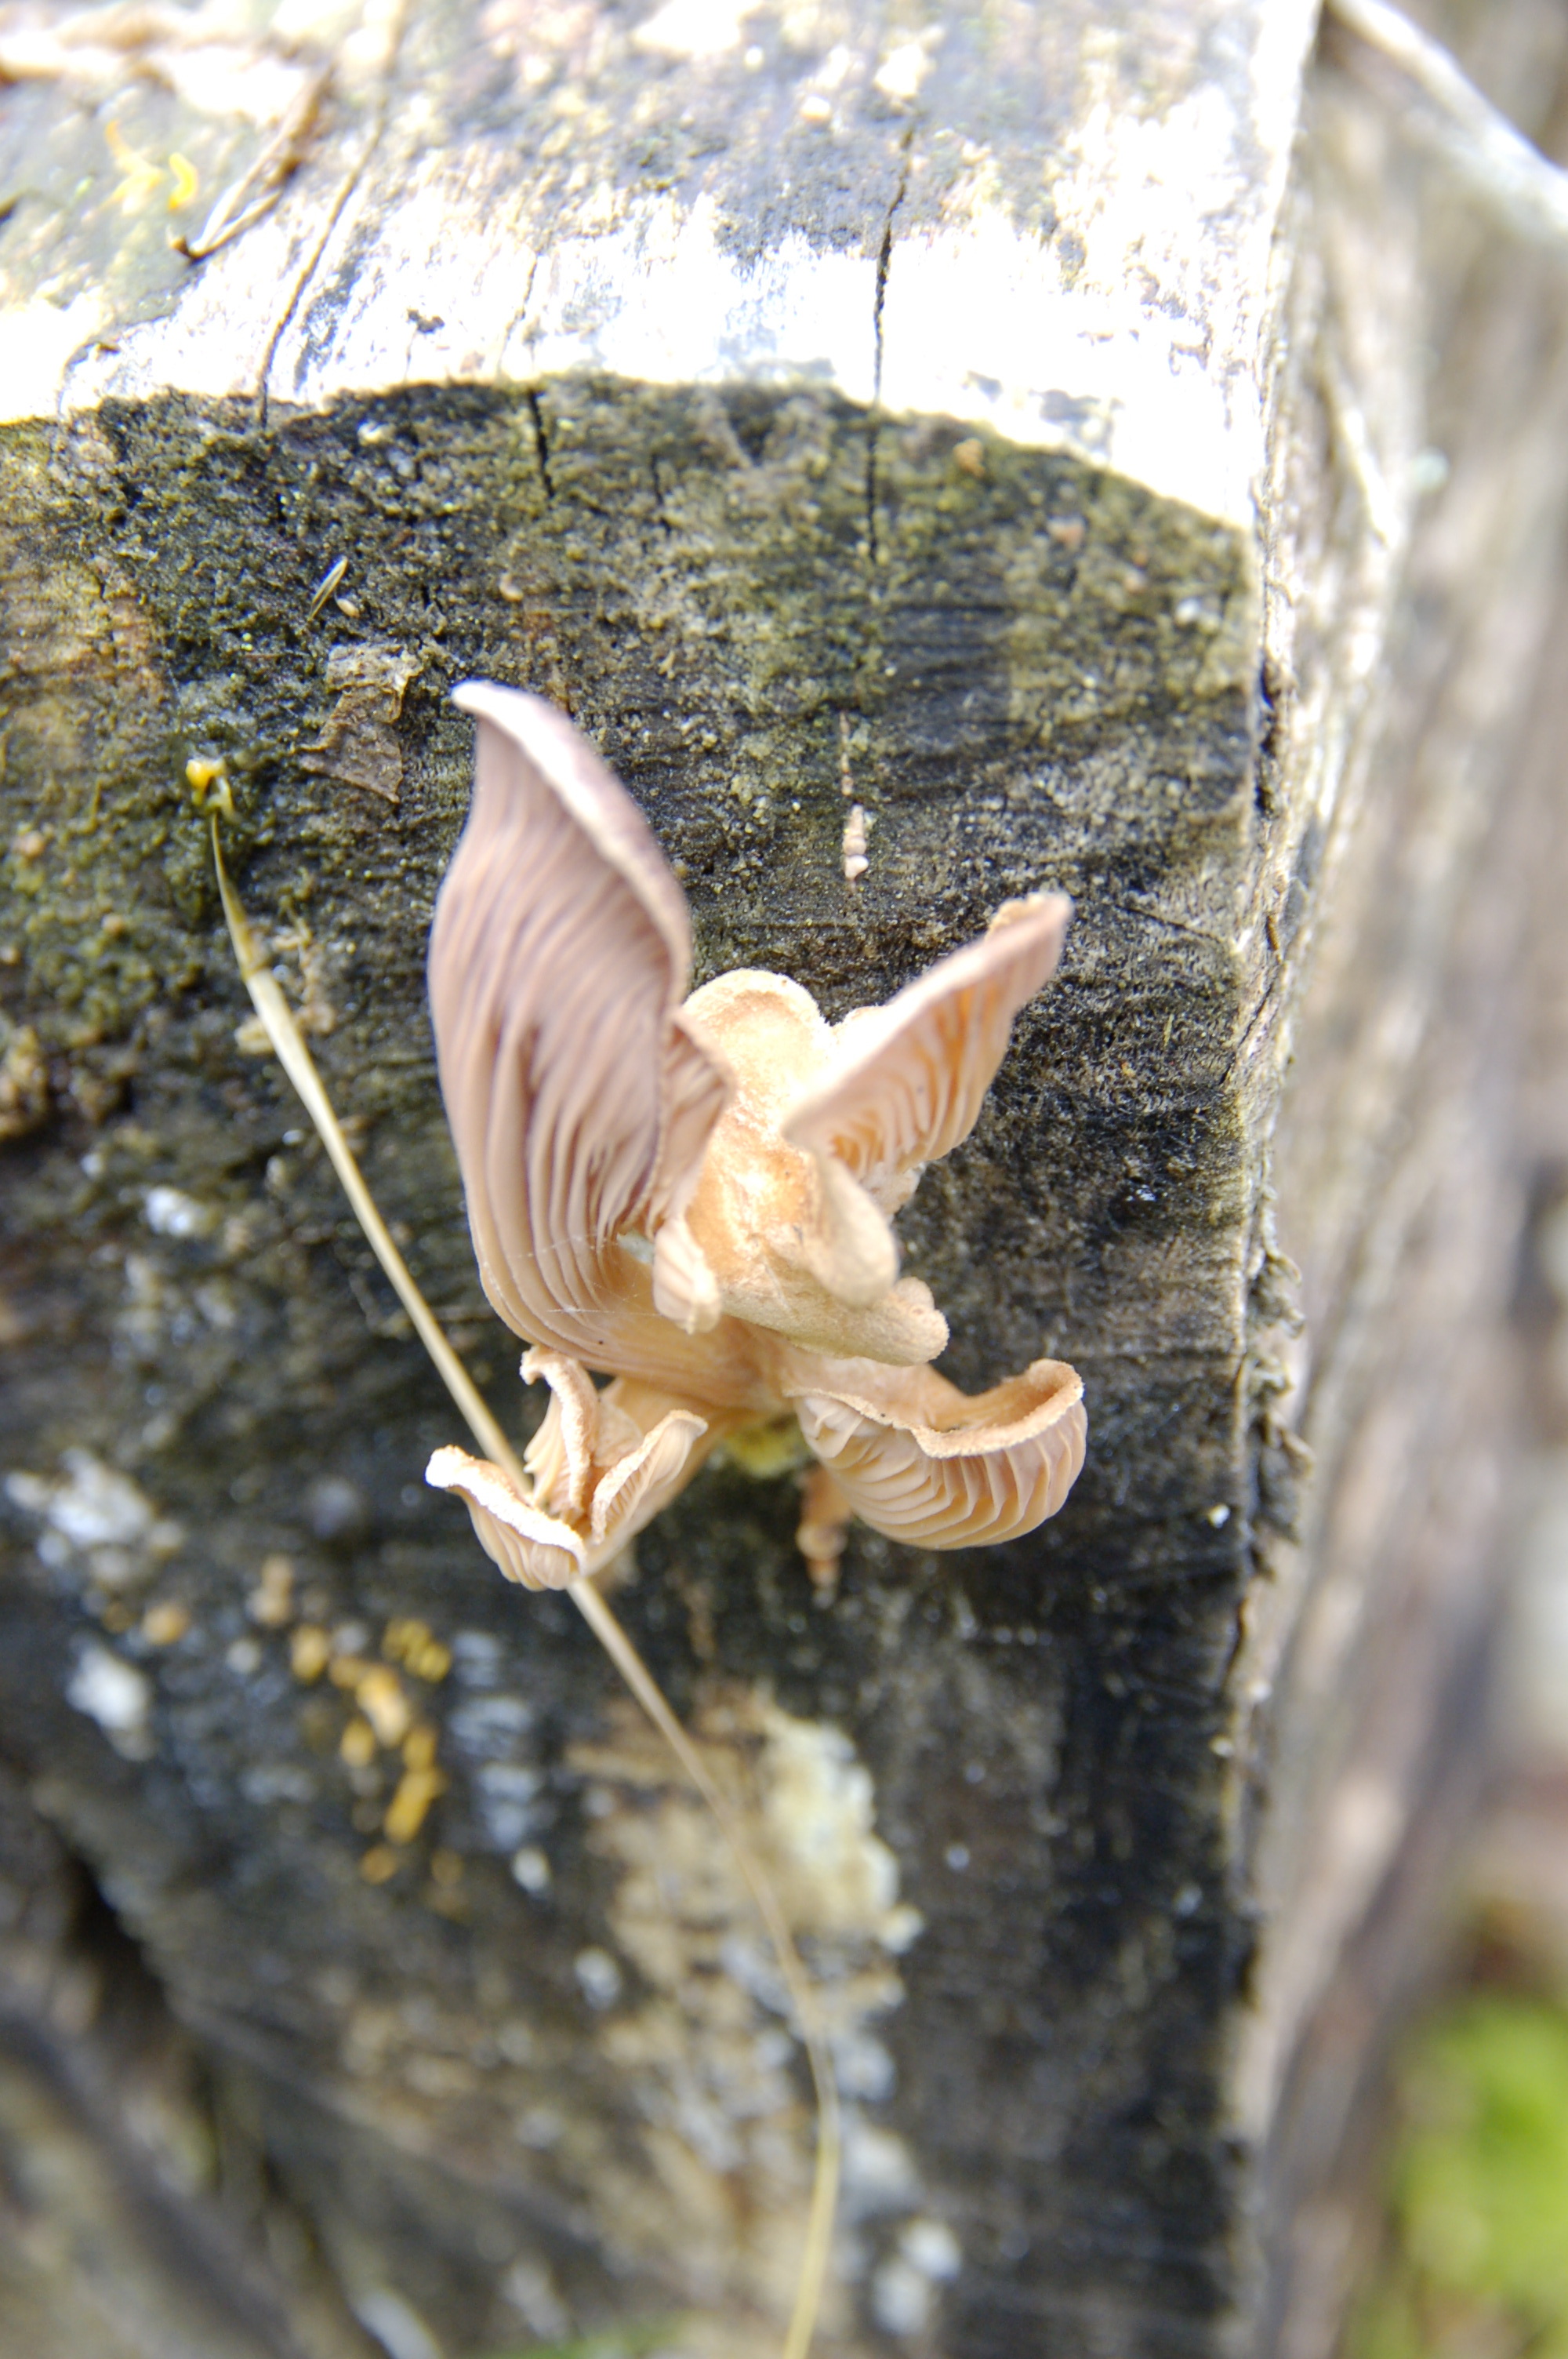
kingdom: Fungi
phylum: Basidiomycota
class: Agaricomycetes
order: Polyporales
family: Panaceae
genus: Panus
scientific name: Panus conchatus
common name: Lilac oysterling
